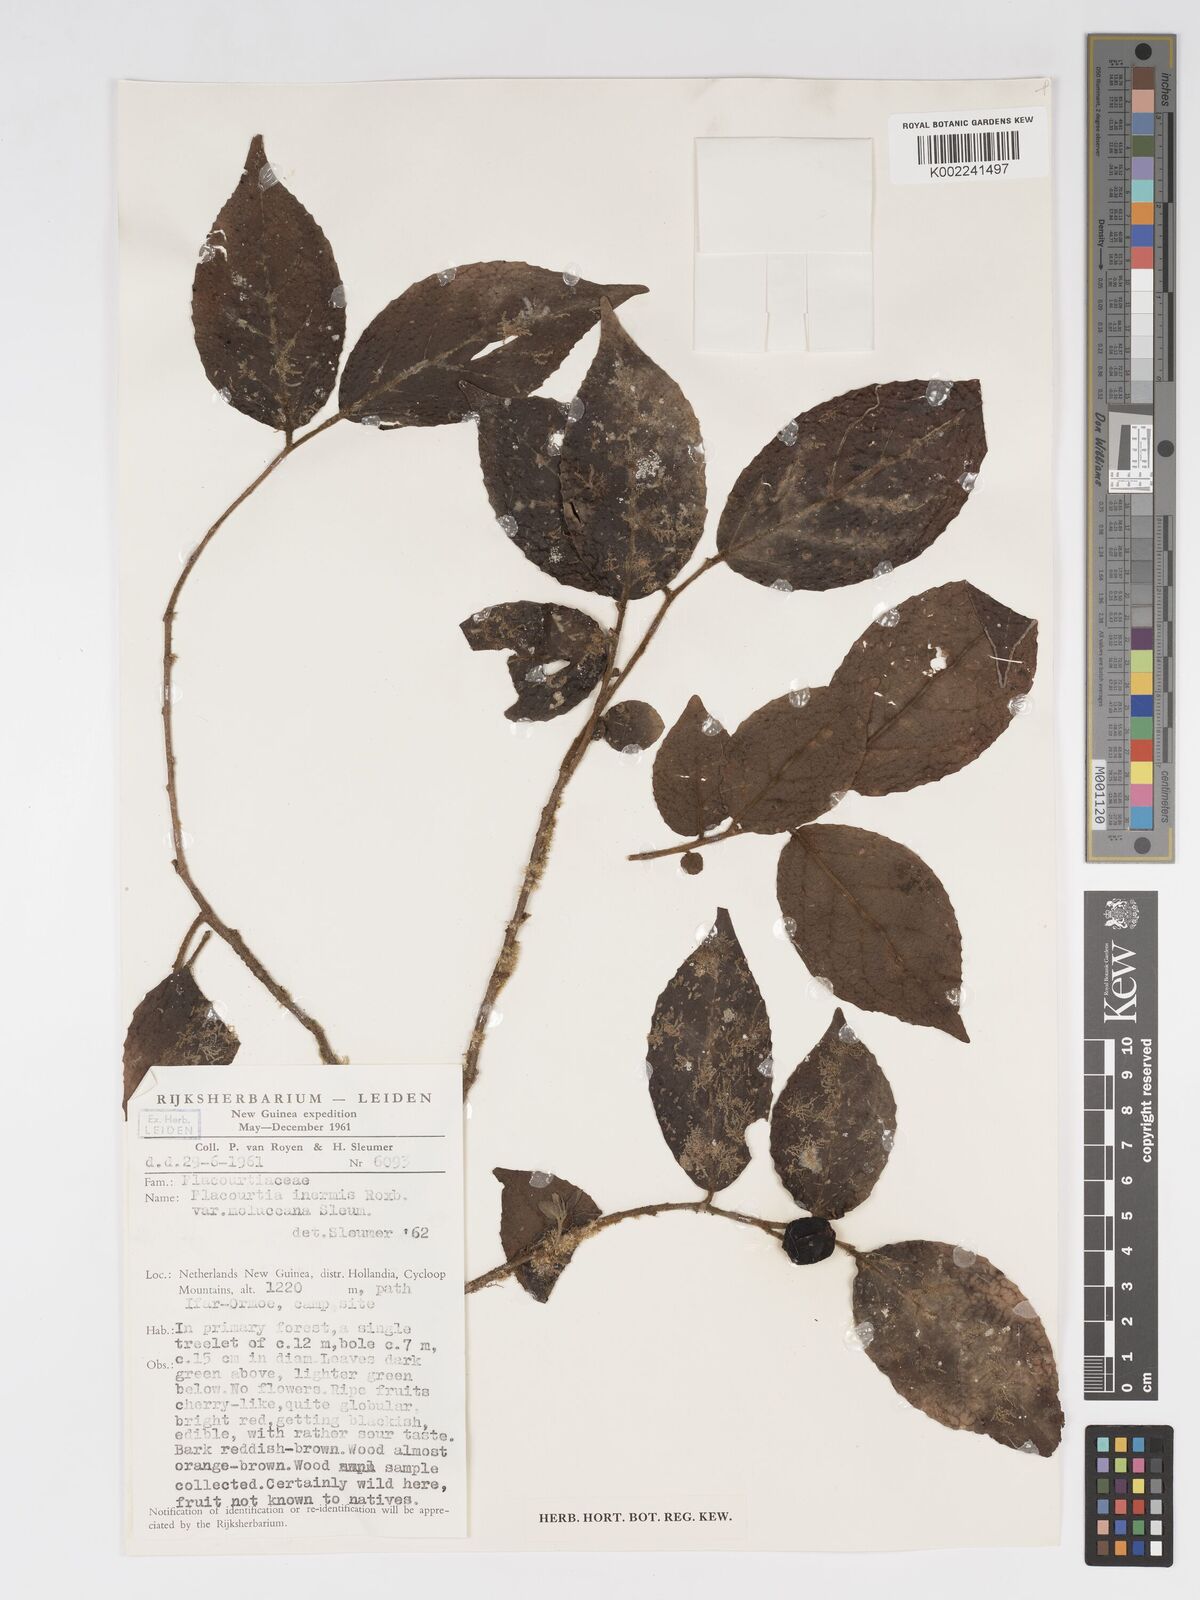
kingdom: Plantae
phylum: Tracheophyta
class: Magnoliopsida
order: Malpighiales
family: Salicaceae
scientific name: Salicaceae
